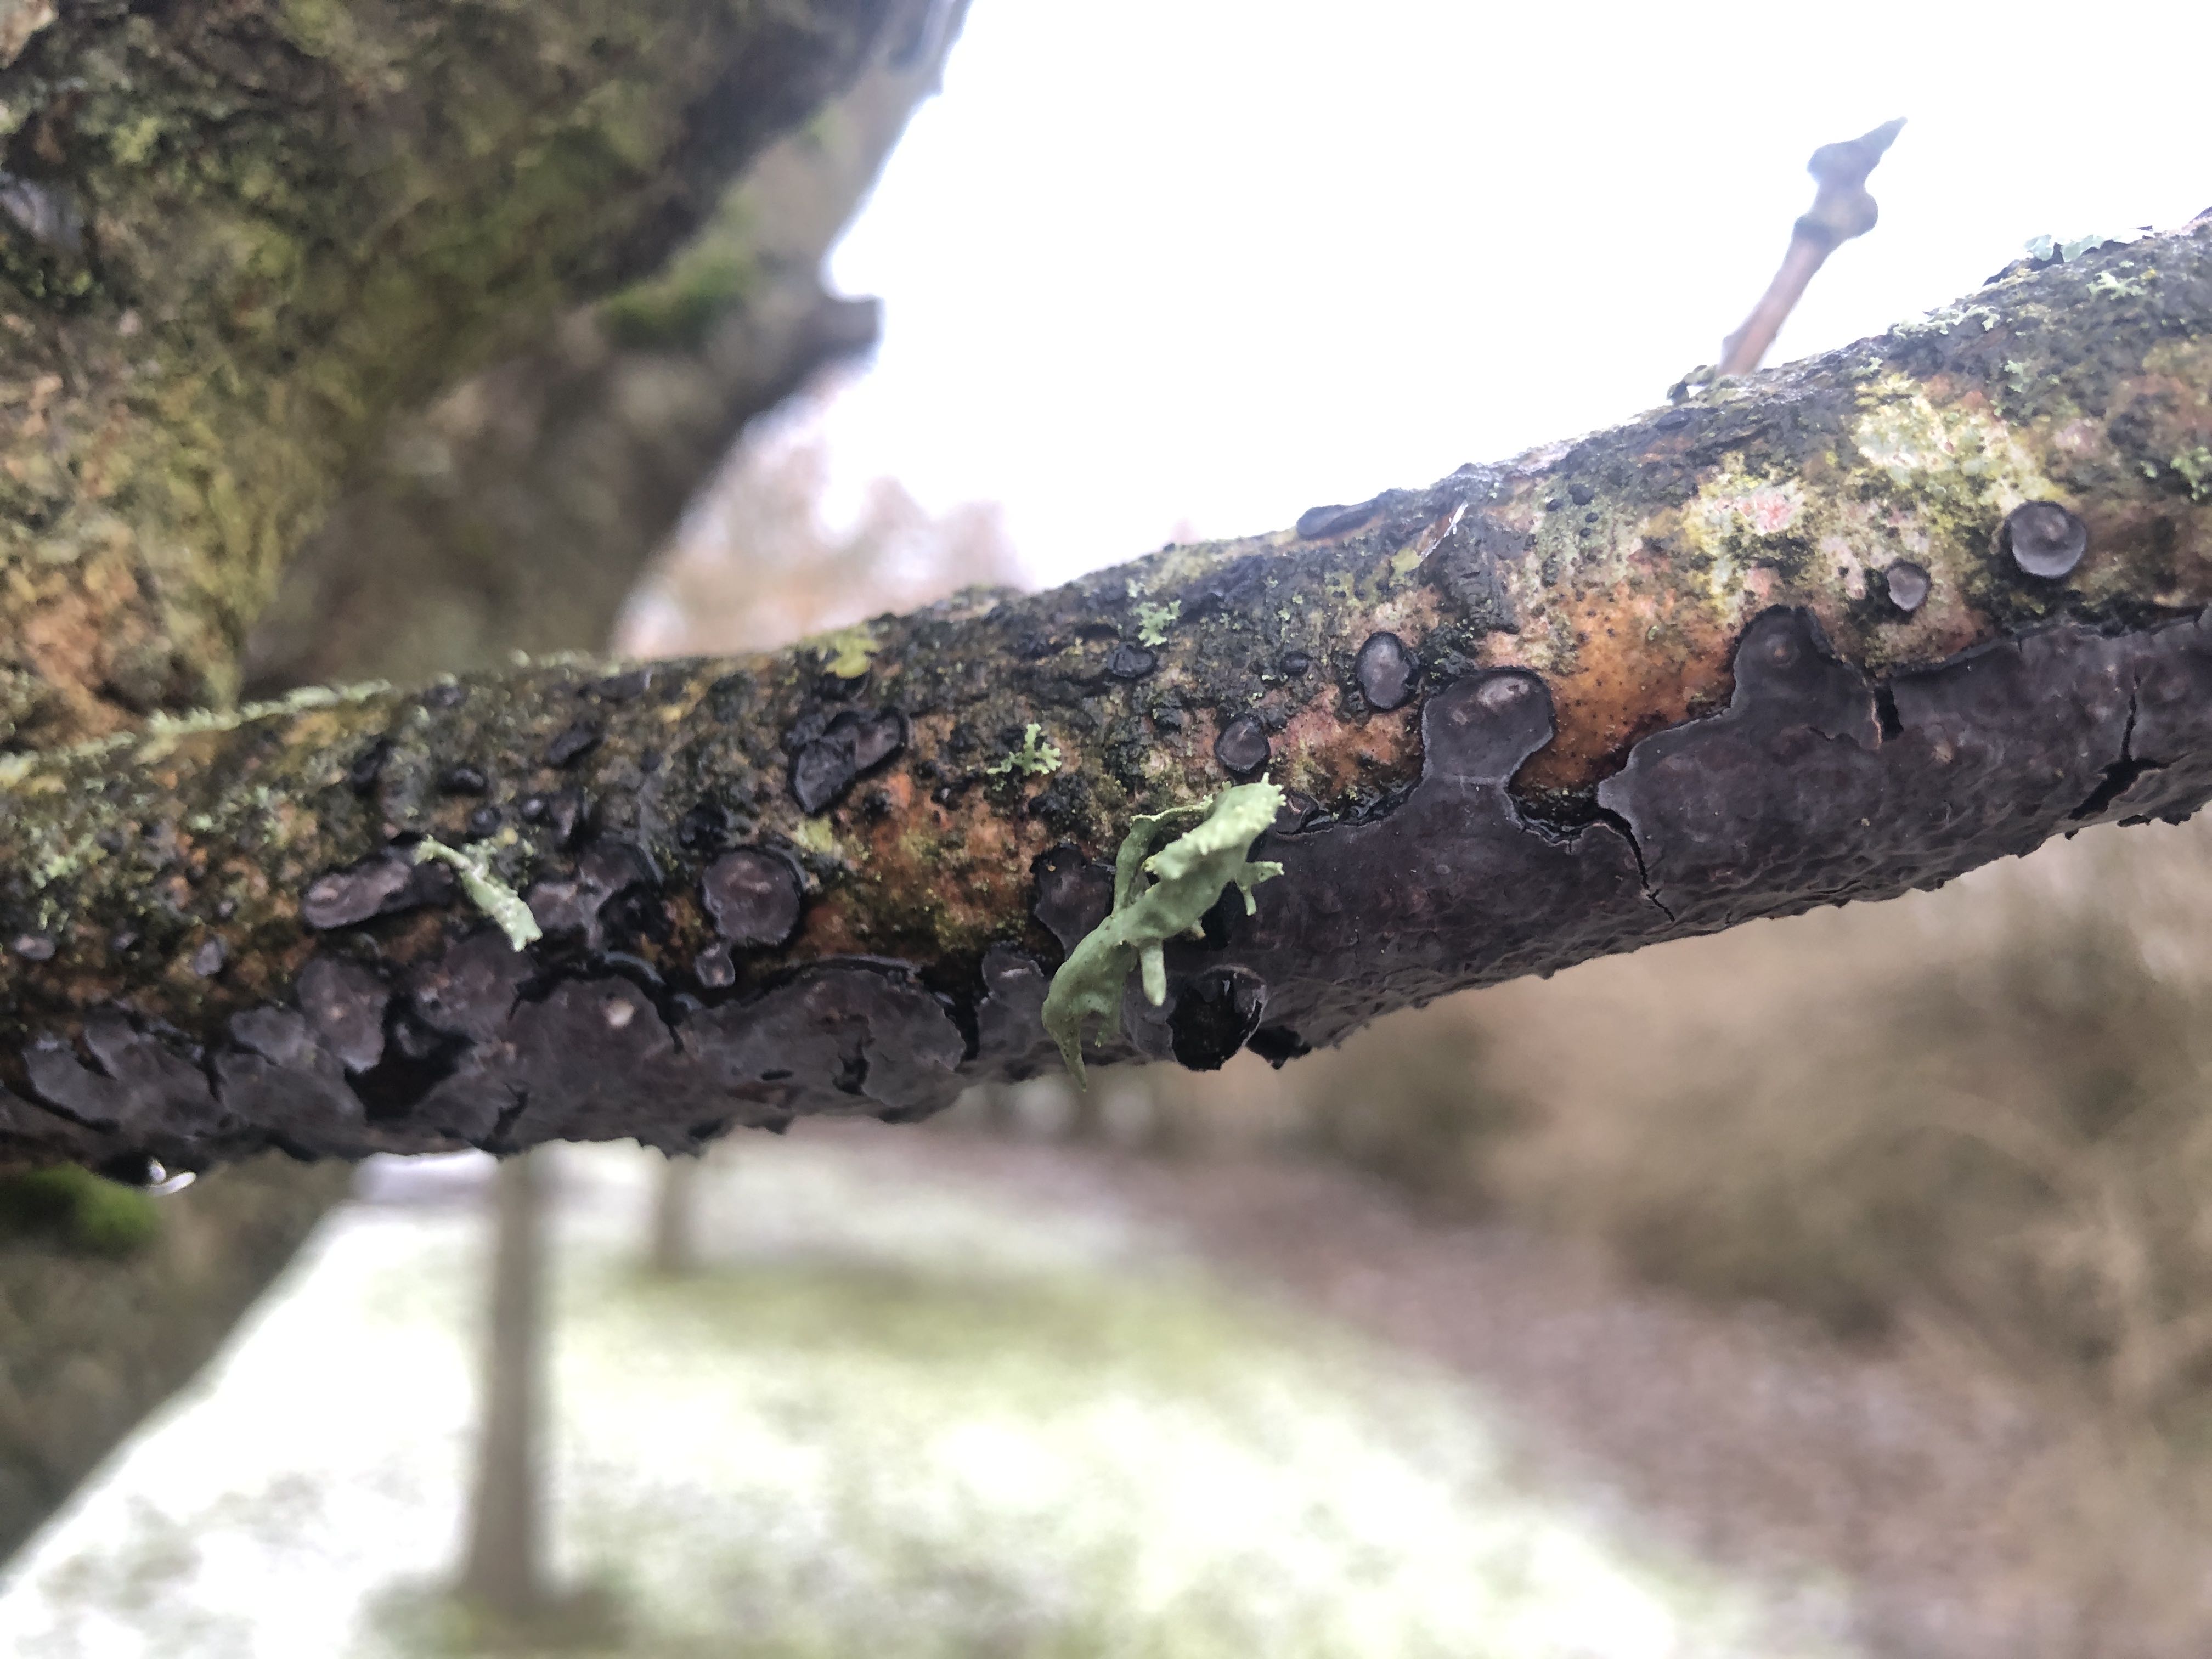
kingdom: Fungi
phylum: Basidiomycota
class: Agaricomycetes
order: Russulales
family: Peniophoraceae
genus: Peniophora
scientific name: Peniophora quercina
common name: ege-voksskind
